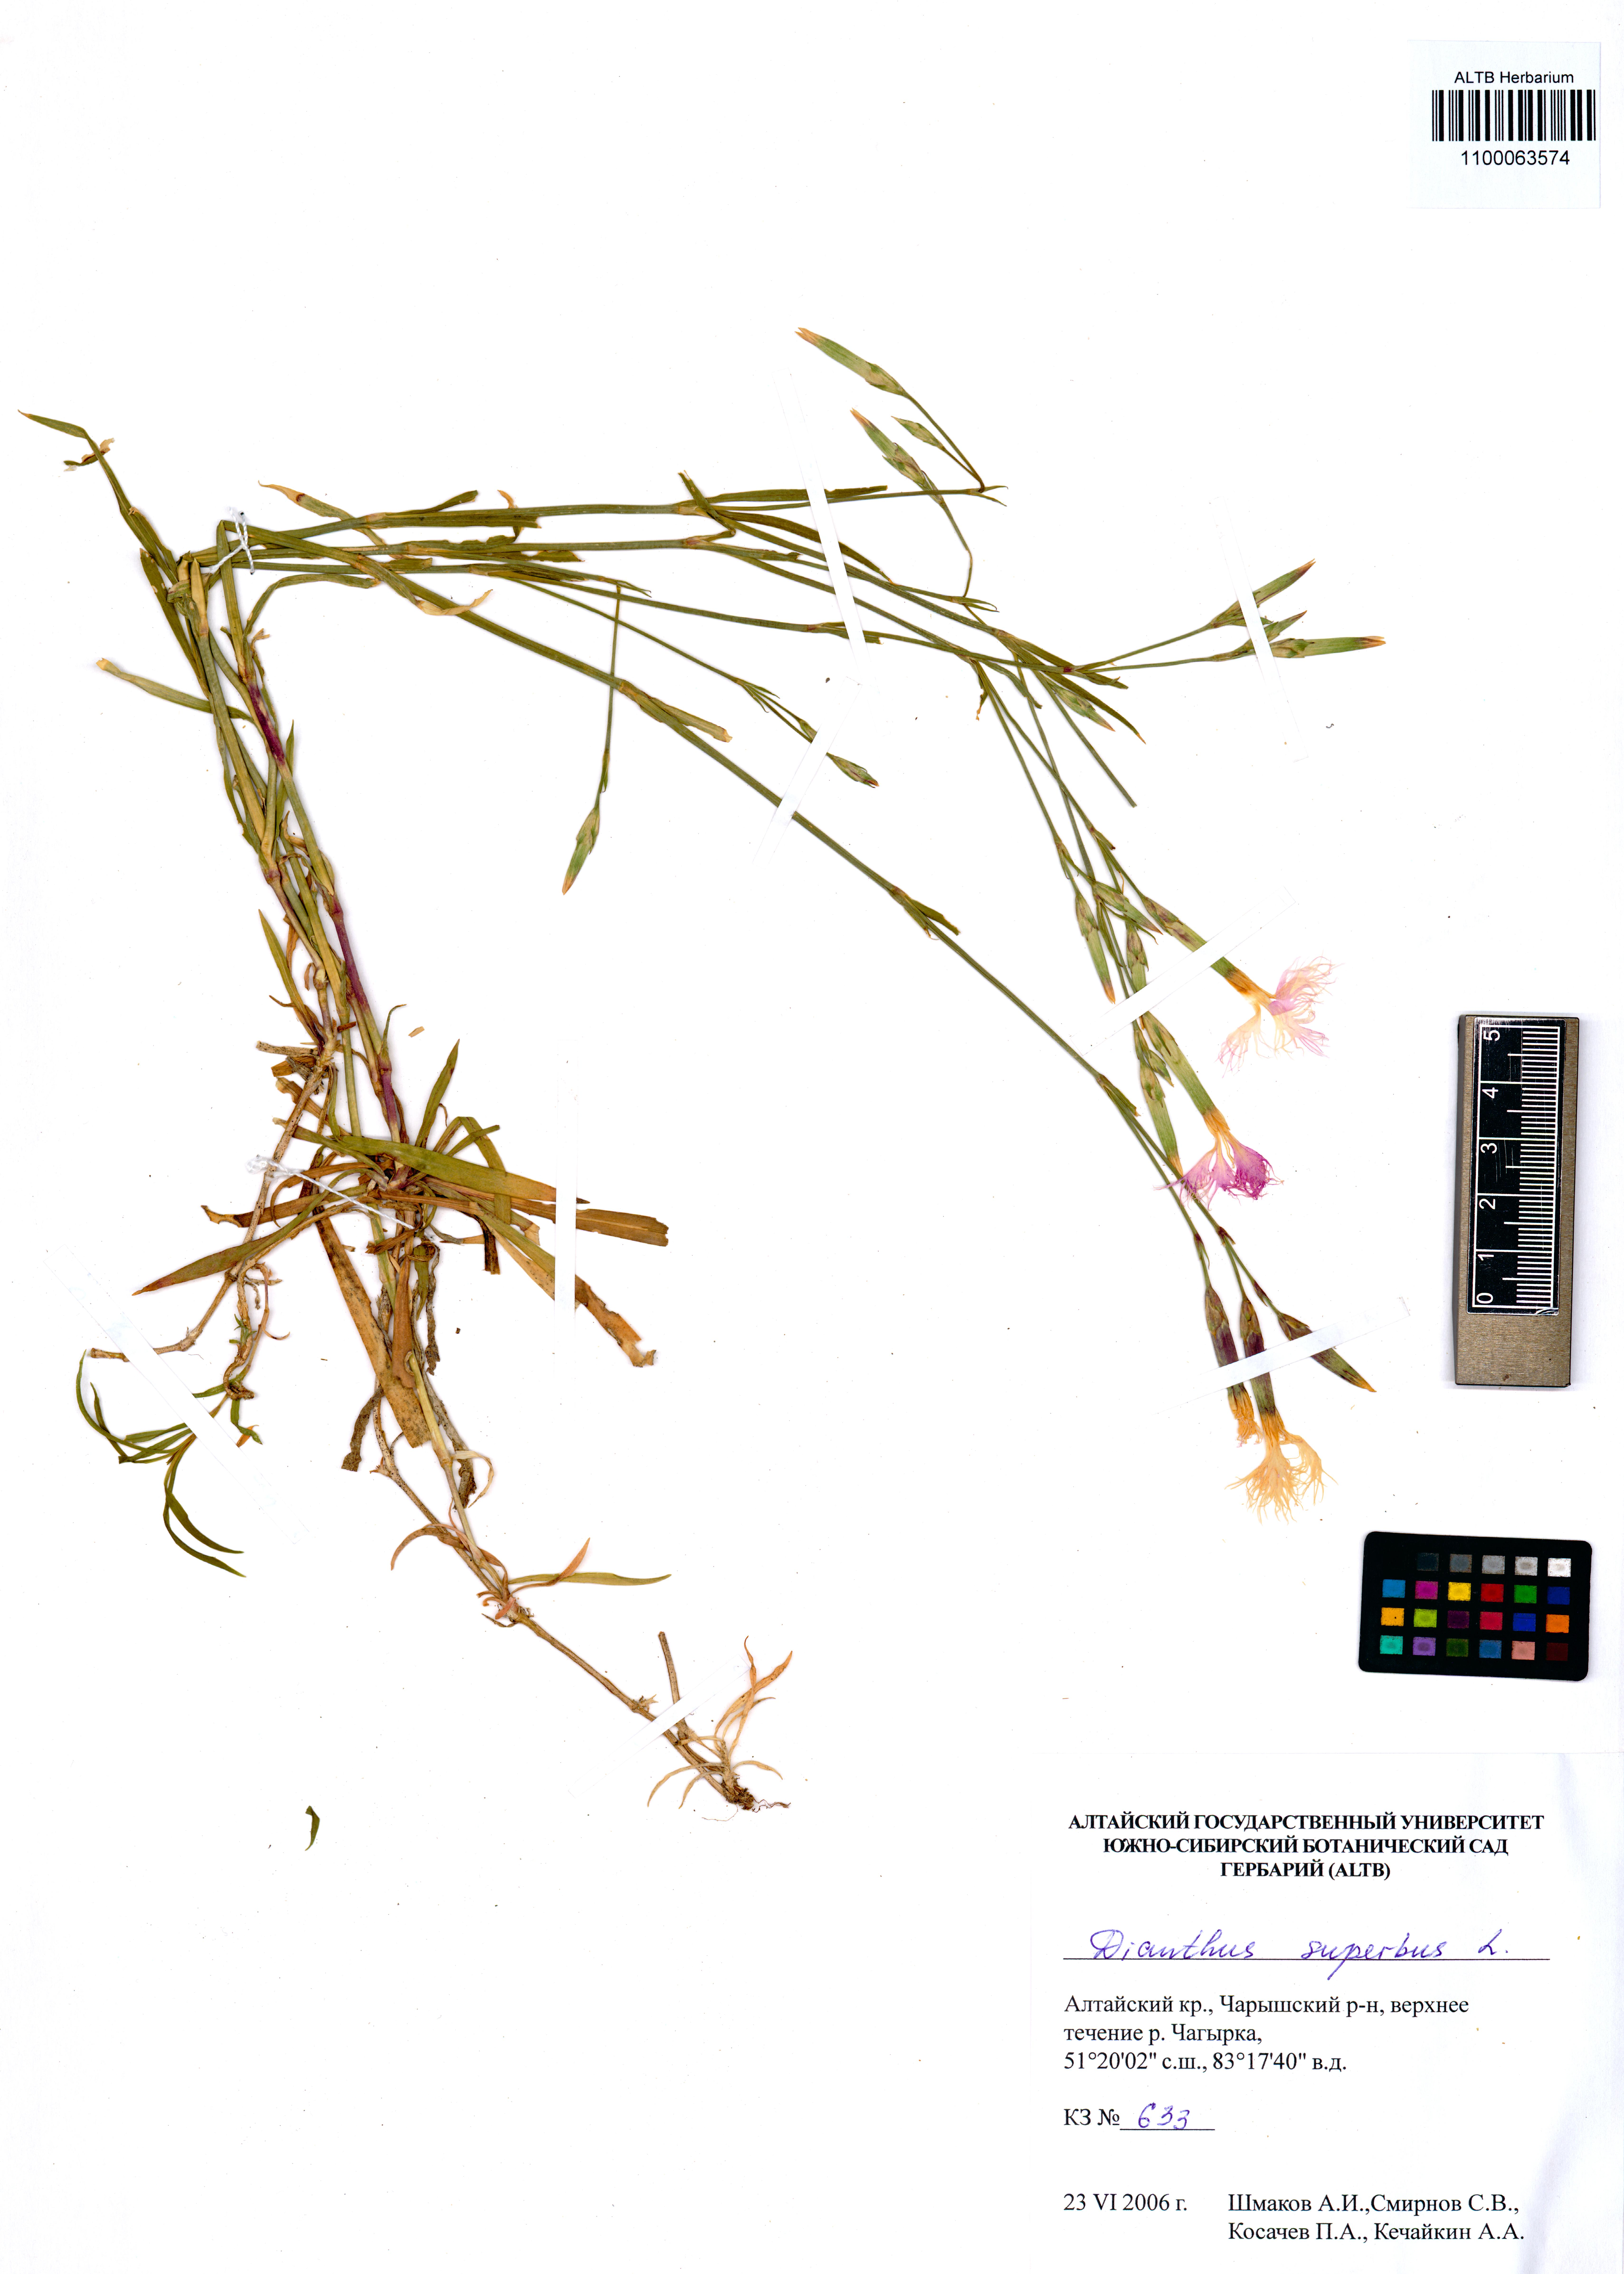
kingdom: Plantae
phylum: Tracheophyta
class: Magnoliopsida
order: Caryophyllales
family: Caryophyllaceae
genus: Dianthus
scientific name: Dianthus superbus
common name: Fringed pink
